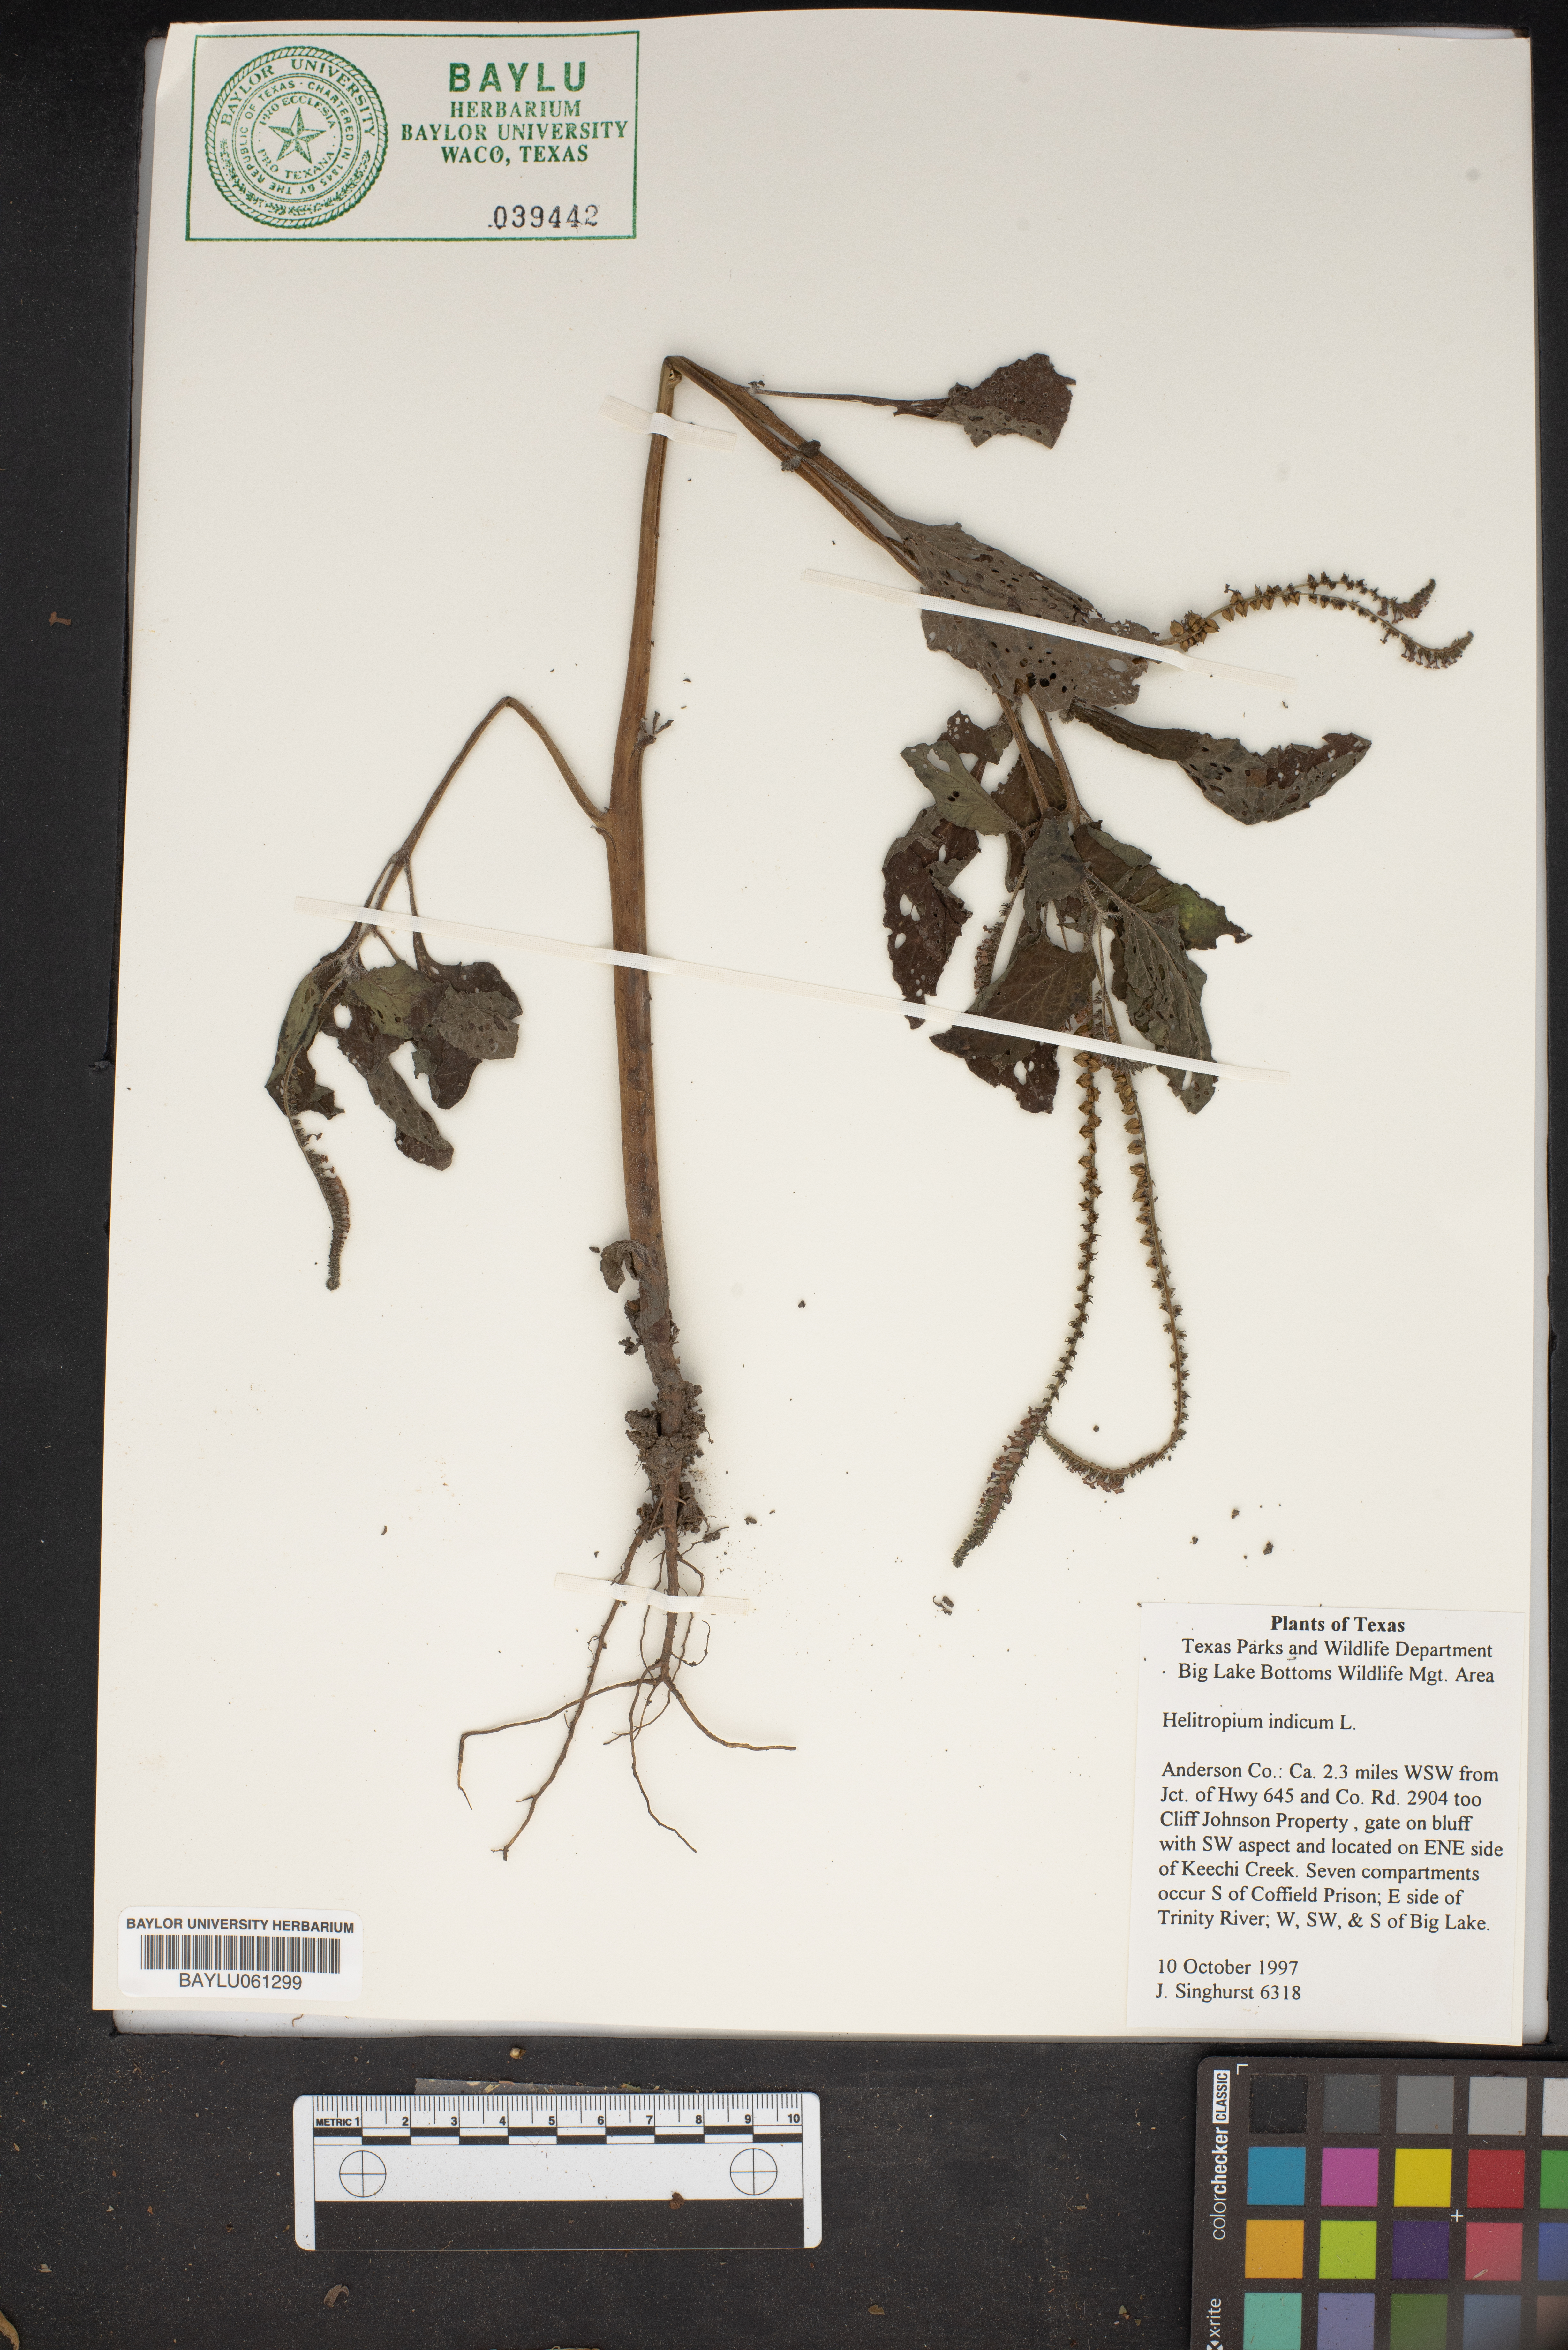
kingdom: Plantae
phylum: Tracheophyta
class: Magnoliopsida
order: Boraginales
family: Heliotropiaceae
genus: Heliotropium
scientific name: Heliotropium indicum
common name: Indian heliotrope
